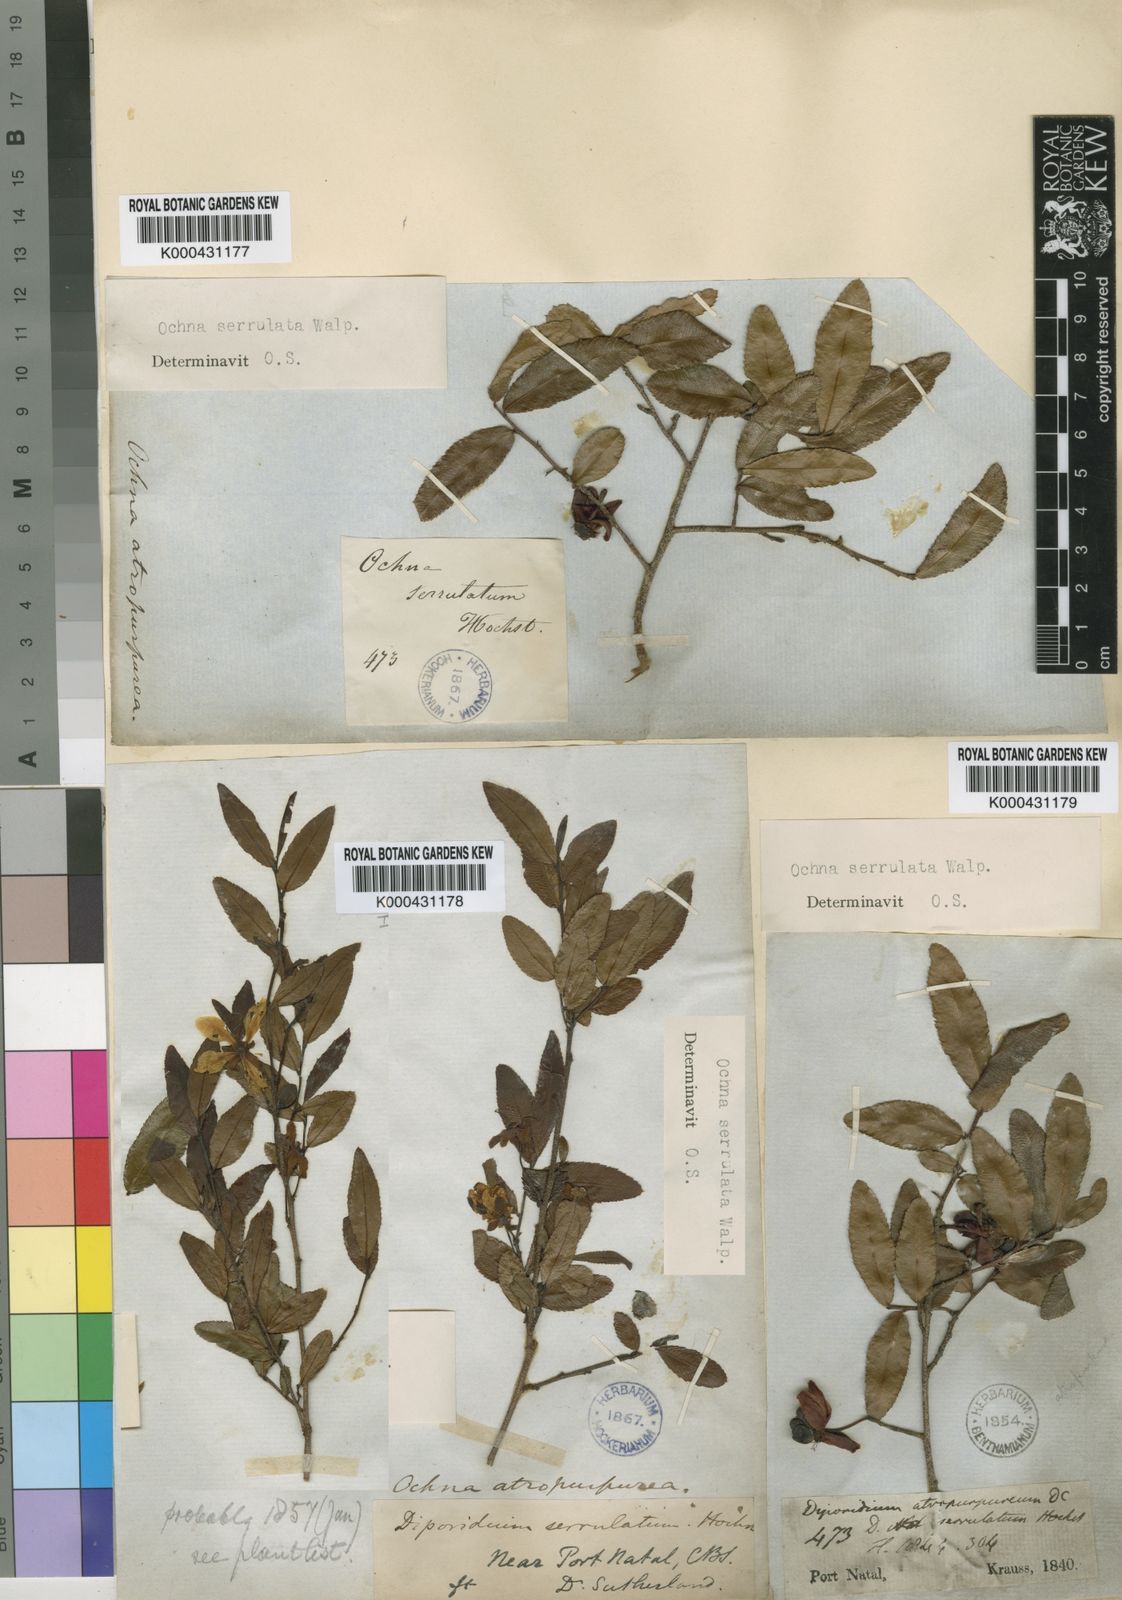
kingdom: Plantae
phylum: Tracheophyta
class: Magnoliopsida
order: Malpighiales
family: Ochnaceae
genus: Ochna
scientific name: Ochna atropurpurea
